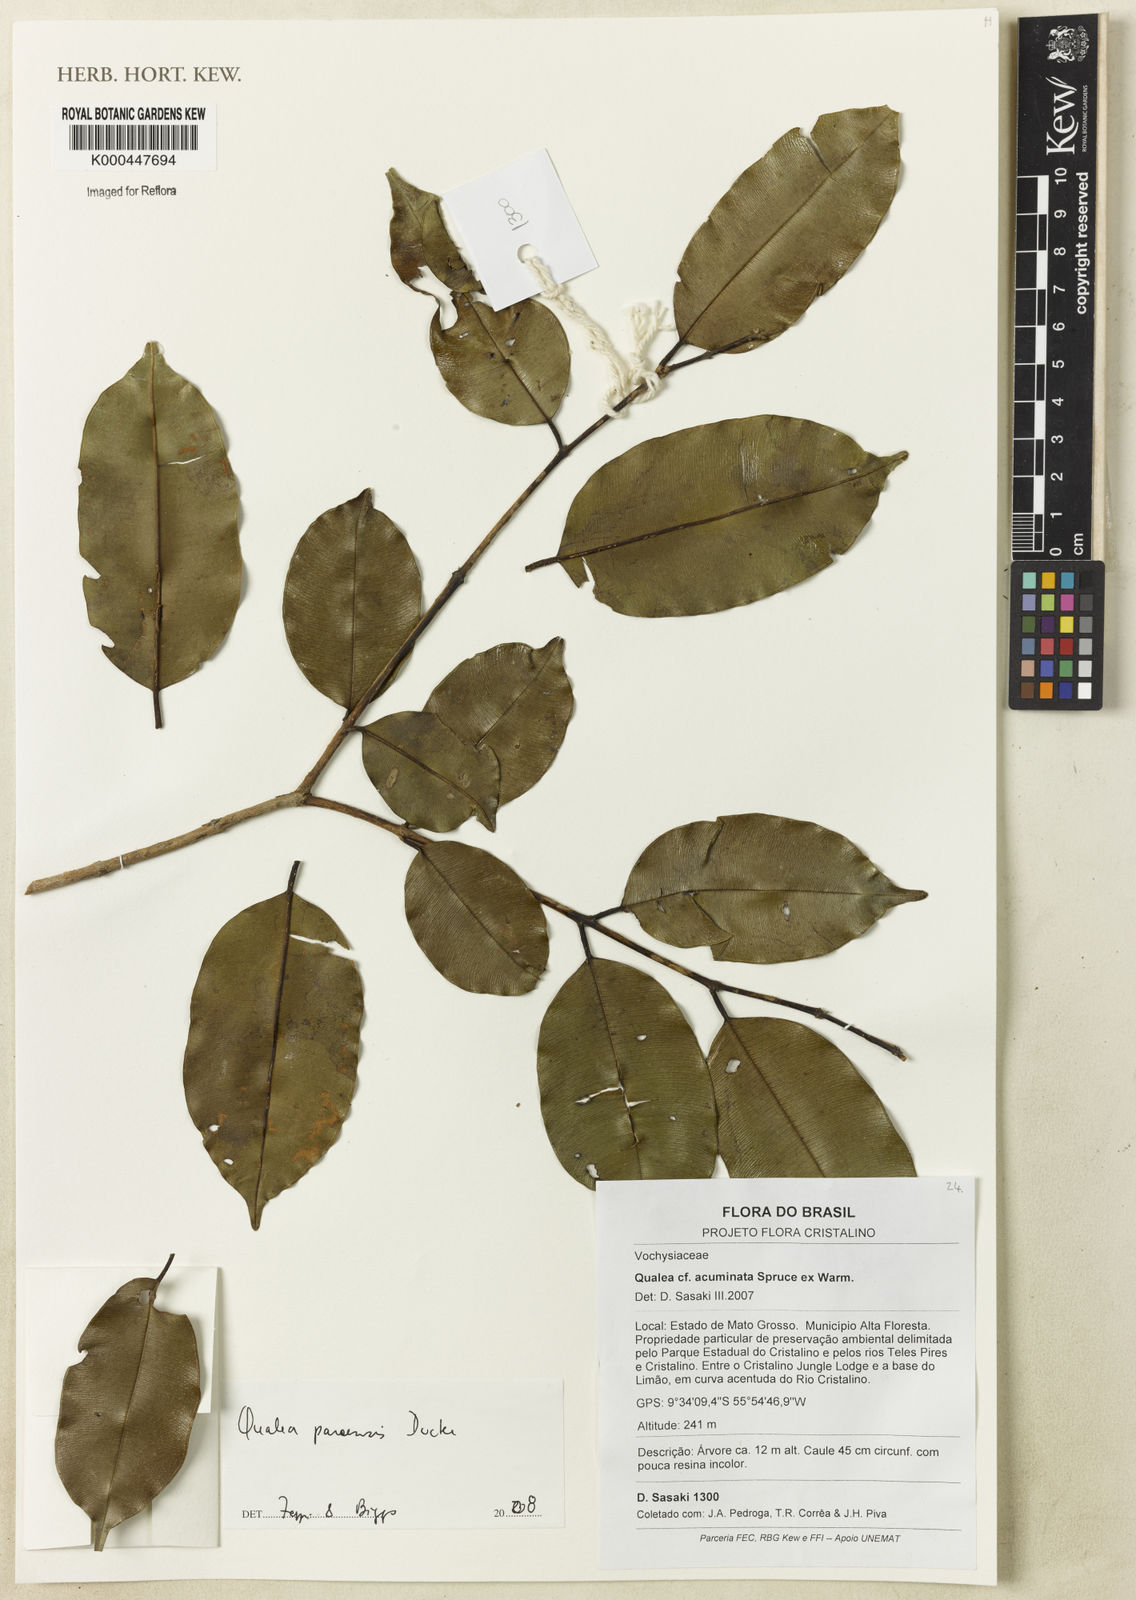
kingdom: Plantae
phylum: Tracheophyta
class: Magnoliopsida
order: Myrtales
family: Vochysiaceae
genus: Qualea
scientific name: Qualea paraensis
